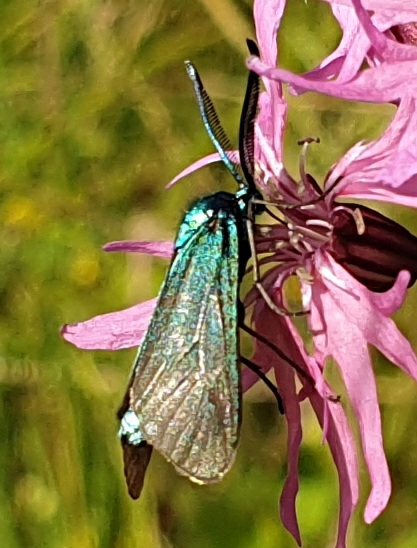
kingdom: Animalia
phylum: Arthropoda
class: Insecta
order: Lepidoptera
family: Zygaenidae
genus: Adscita
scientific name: Adscita statices
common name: Metalvinge
